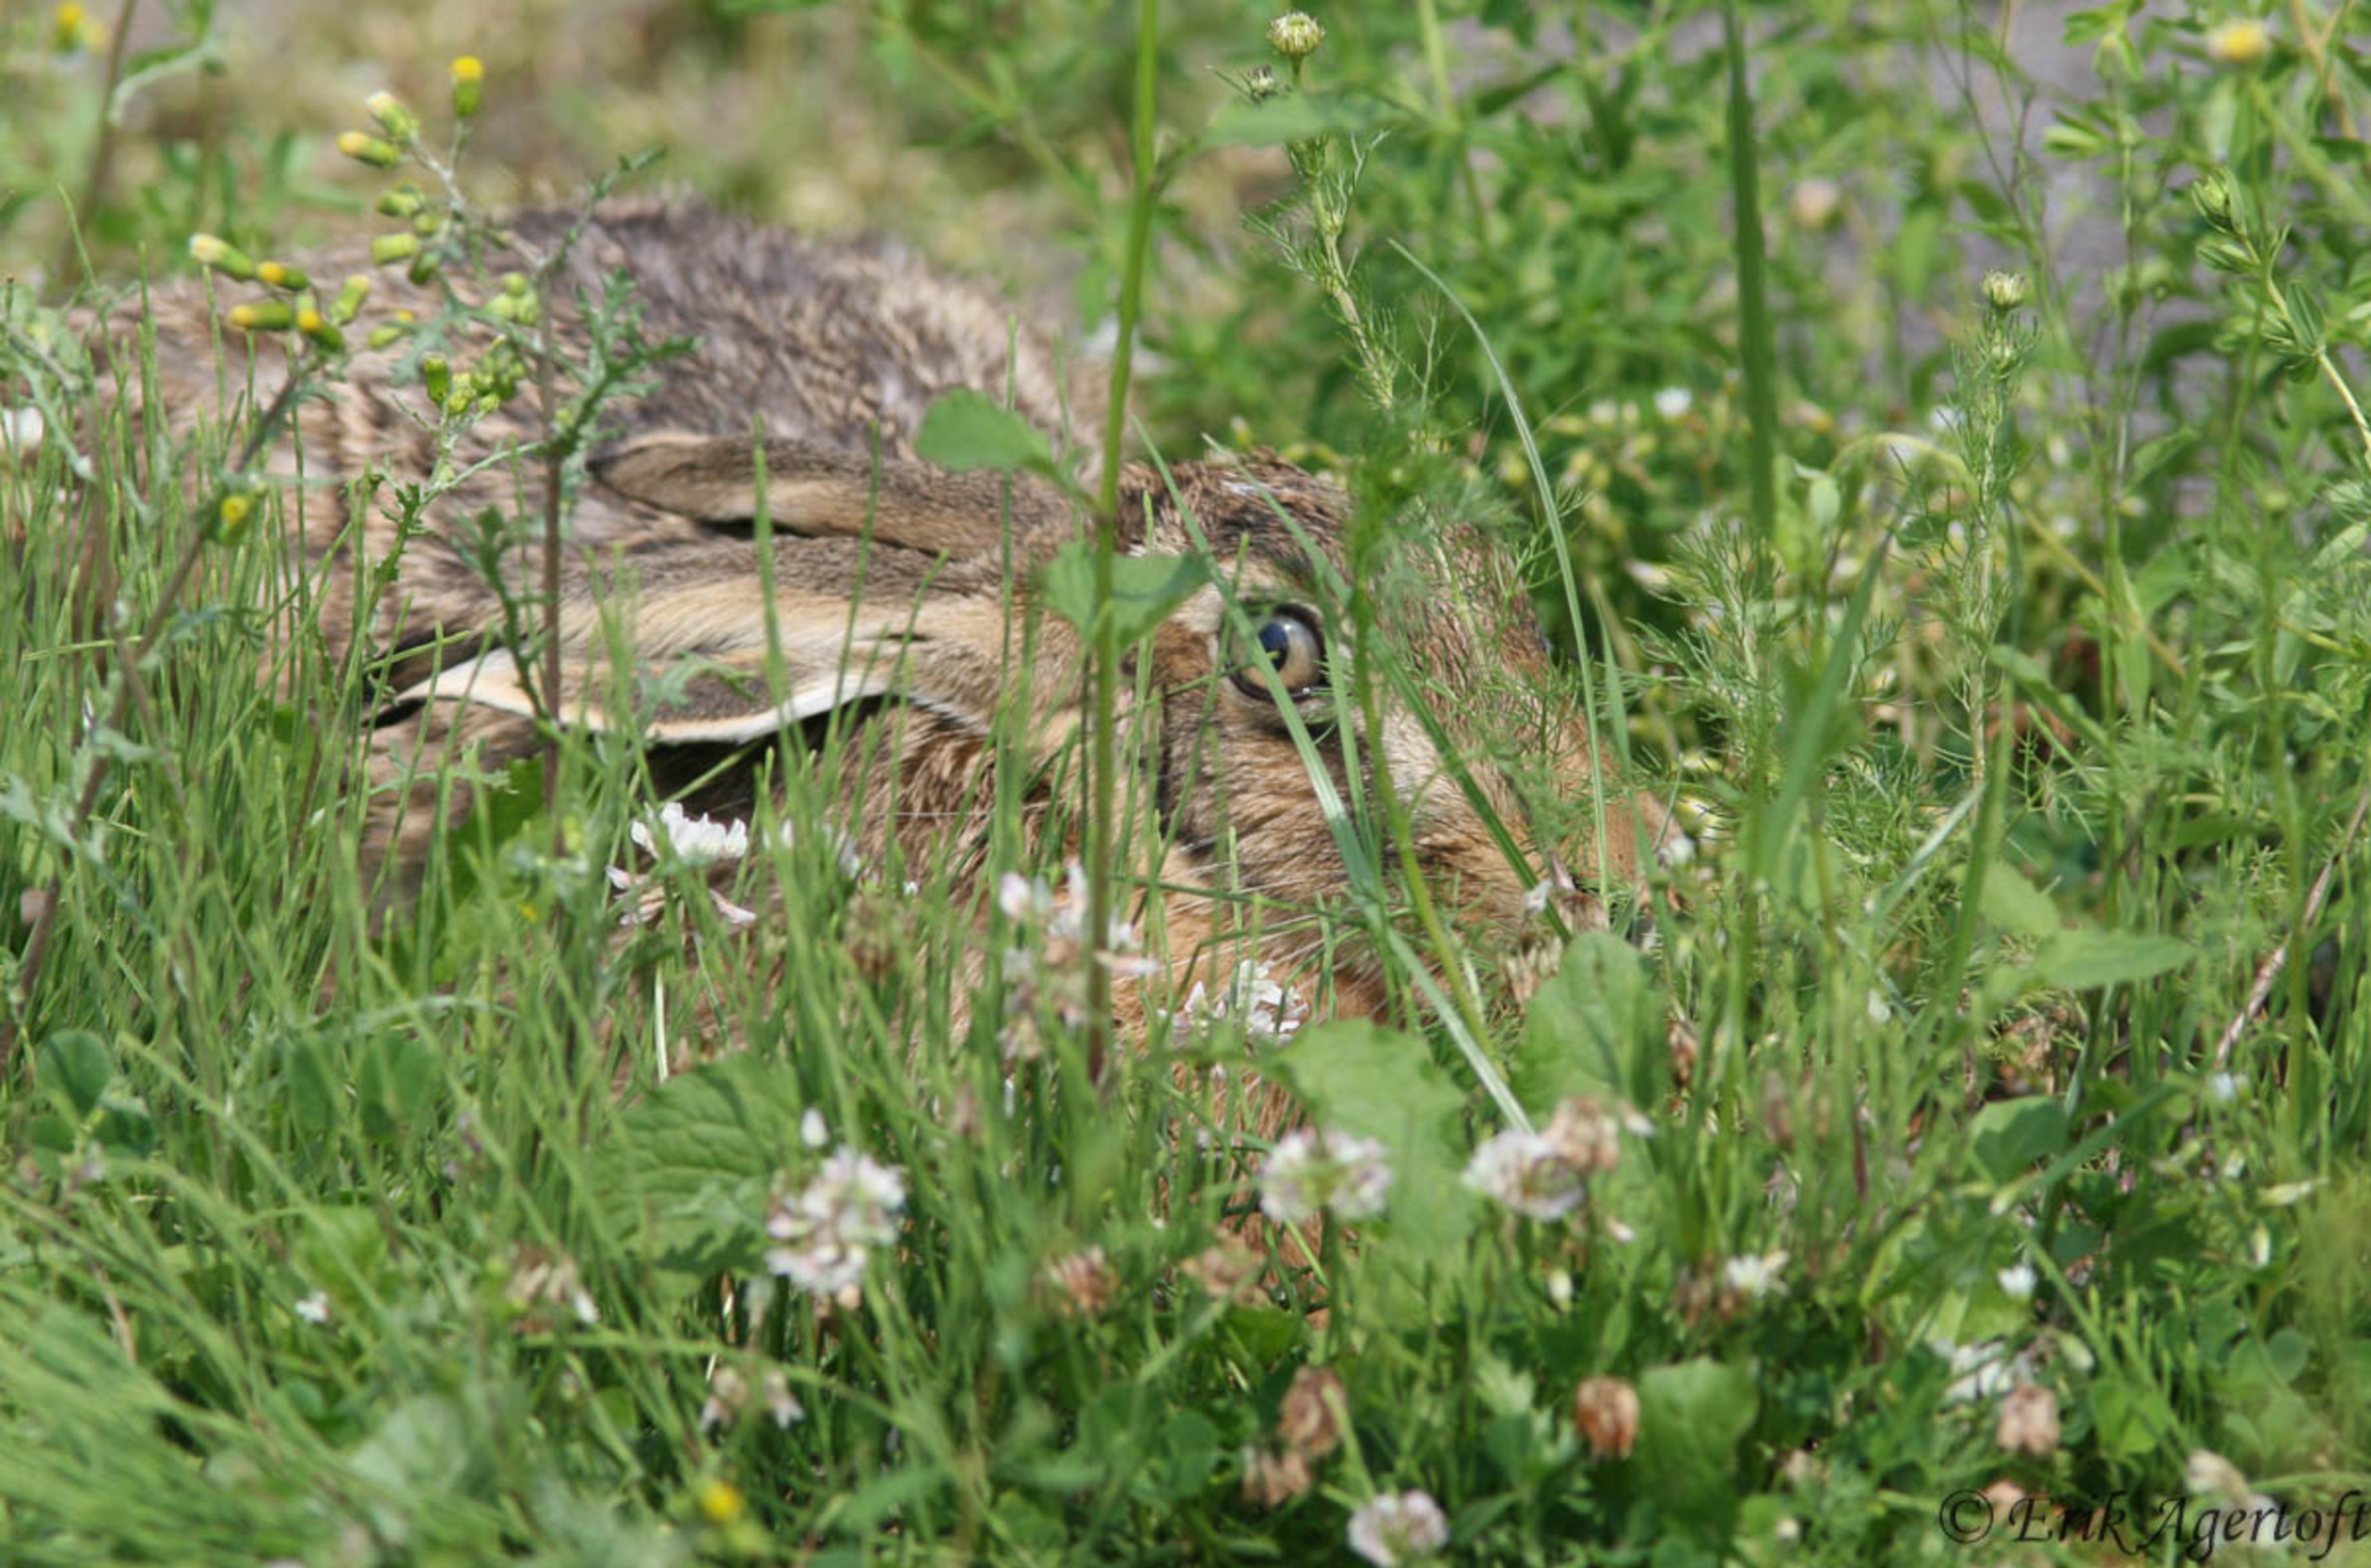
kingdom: Animalia
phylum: Chordata
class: Mammalia
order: Lagomorpha
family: Leporidae
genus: Lepus
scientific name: Lepus europaeus
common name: Hare
